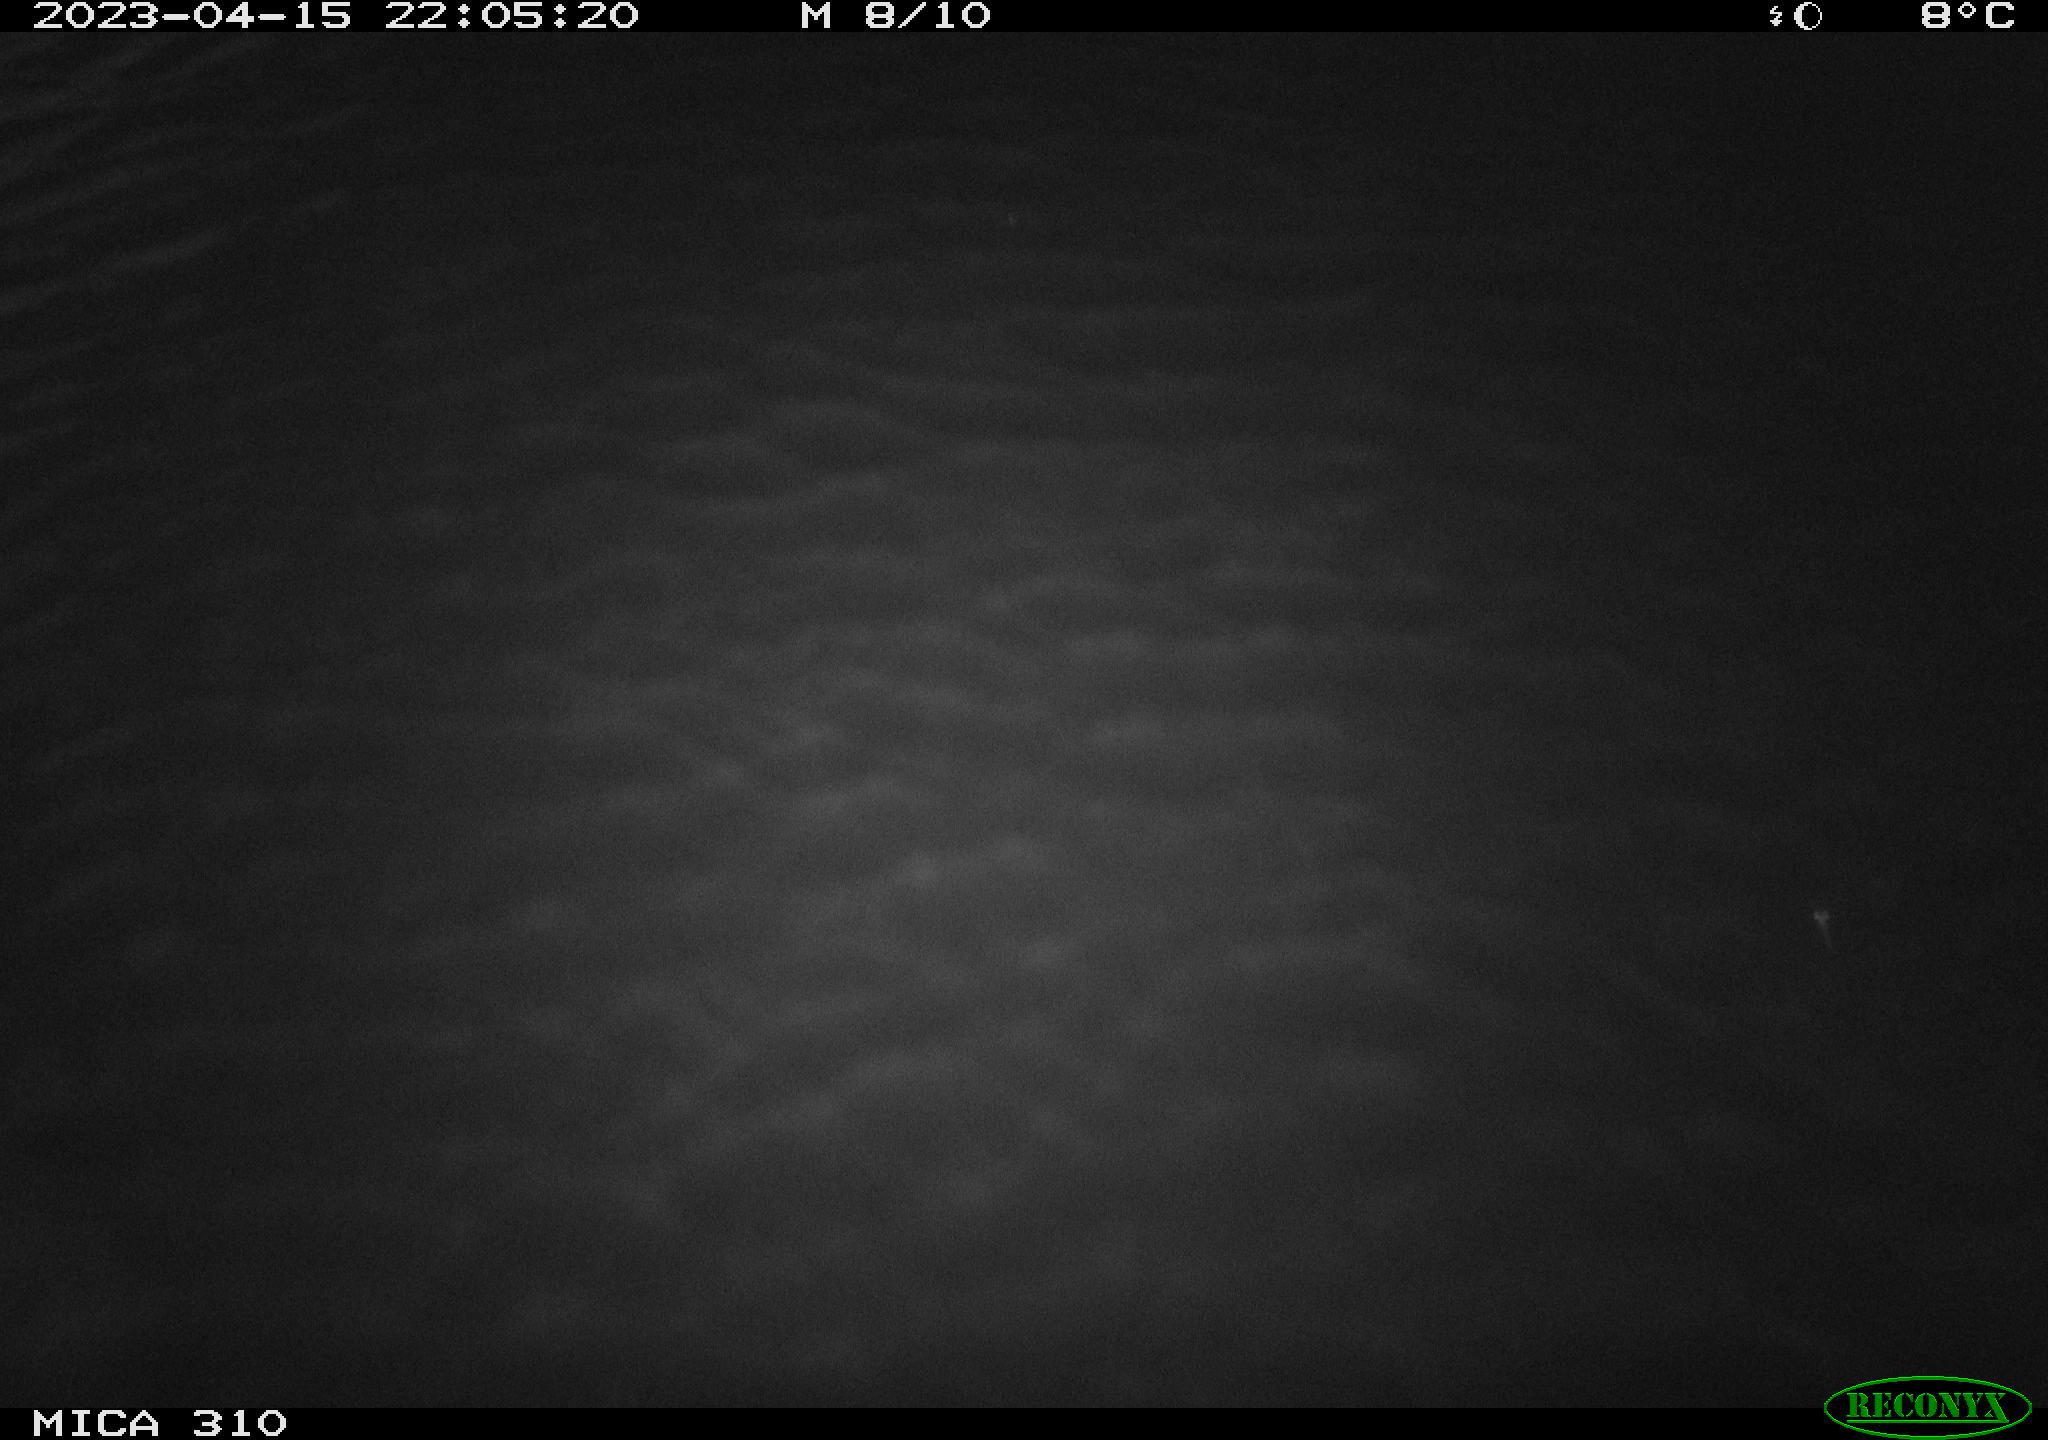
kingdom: Animalia
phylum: Chordata
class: Mammalia
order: Rodentia
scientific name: Rodentia
